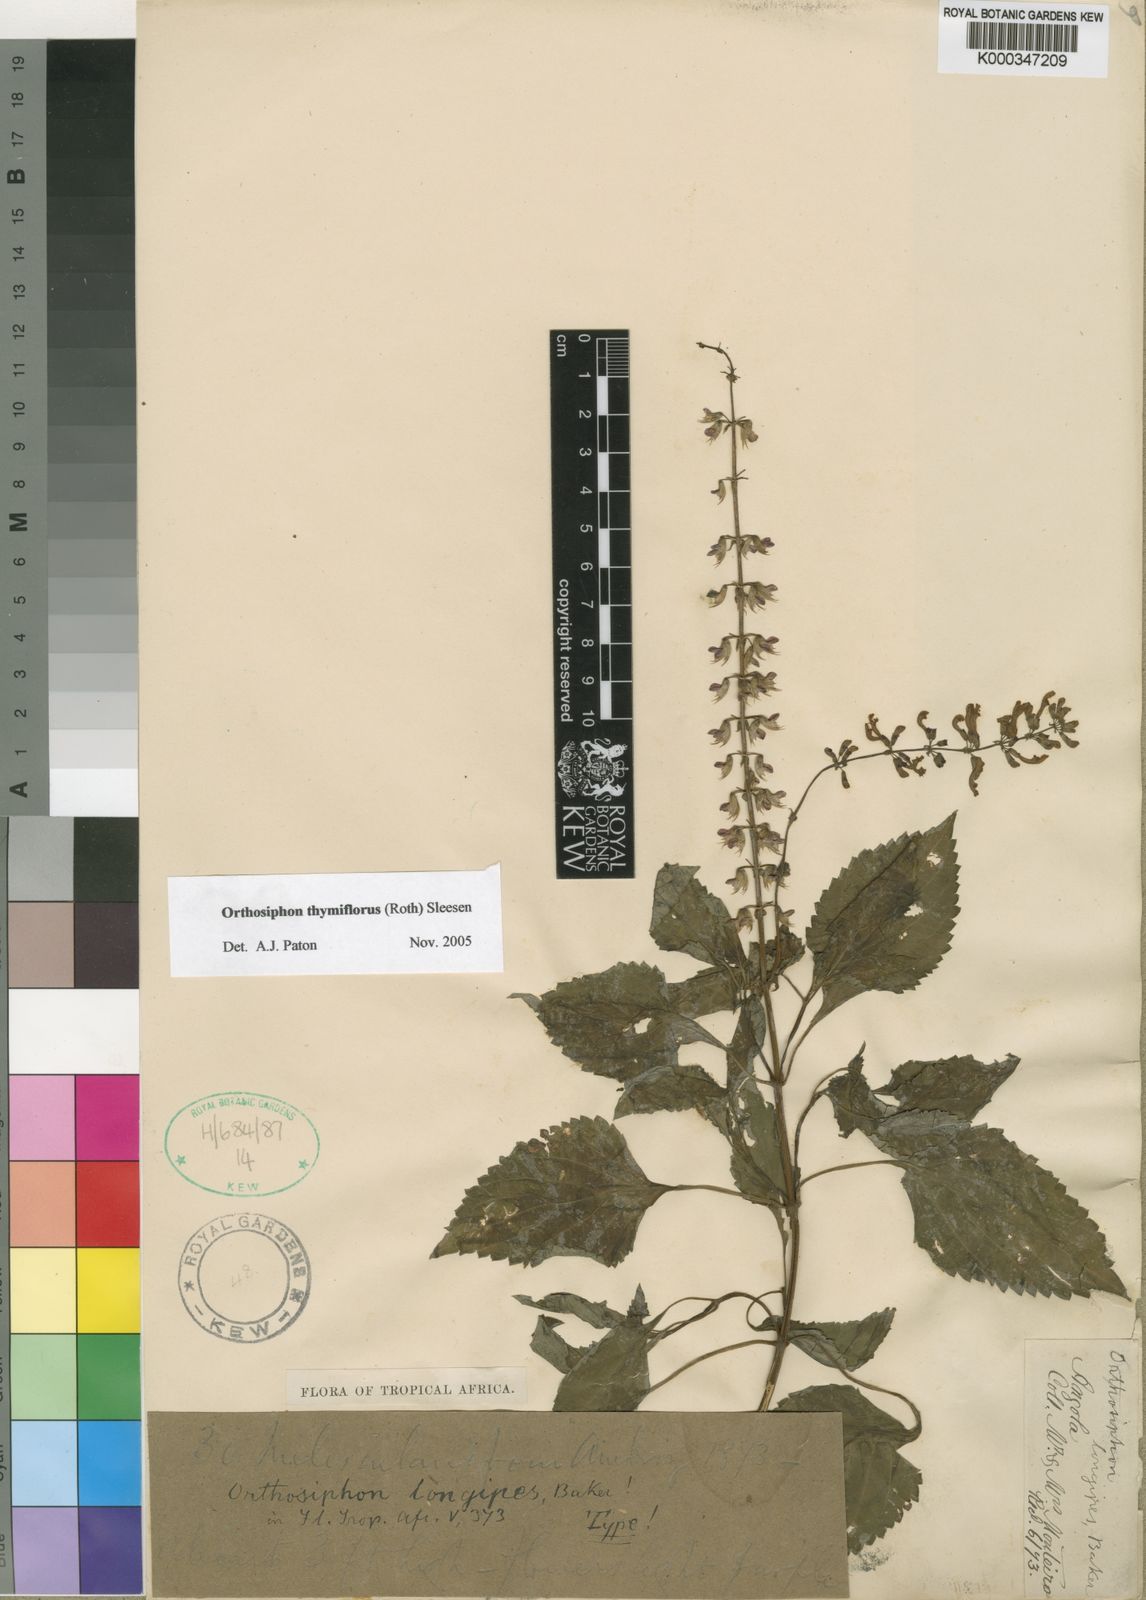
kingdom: Plantae
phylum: Tracheophyta
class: Magnoliopsida
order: Lamiales
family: Lamiaceae
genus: Orthosiphon
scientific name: Orthosiphon thymiflorus
